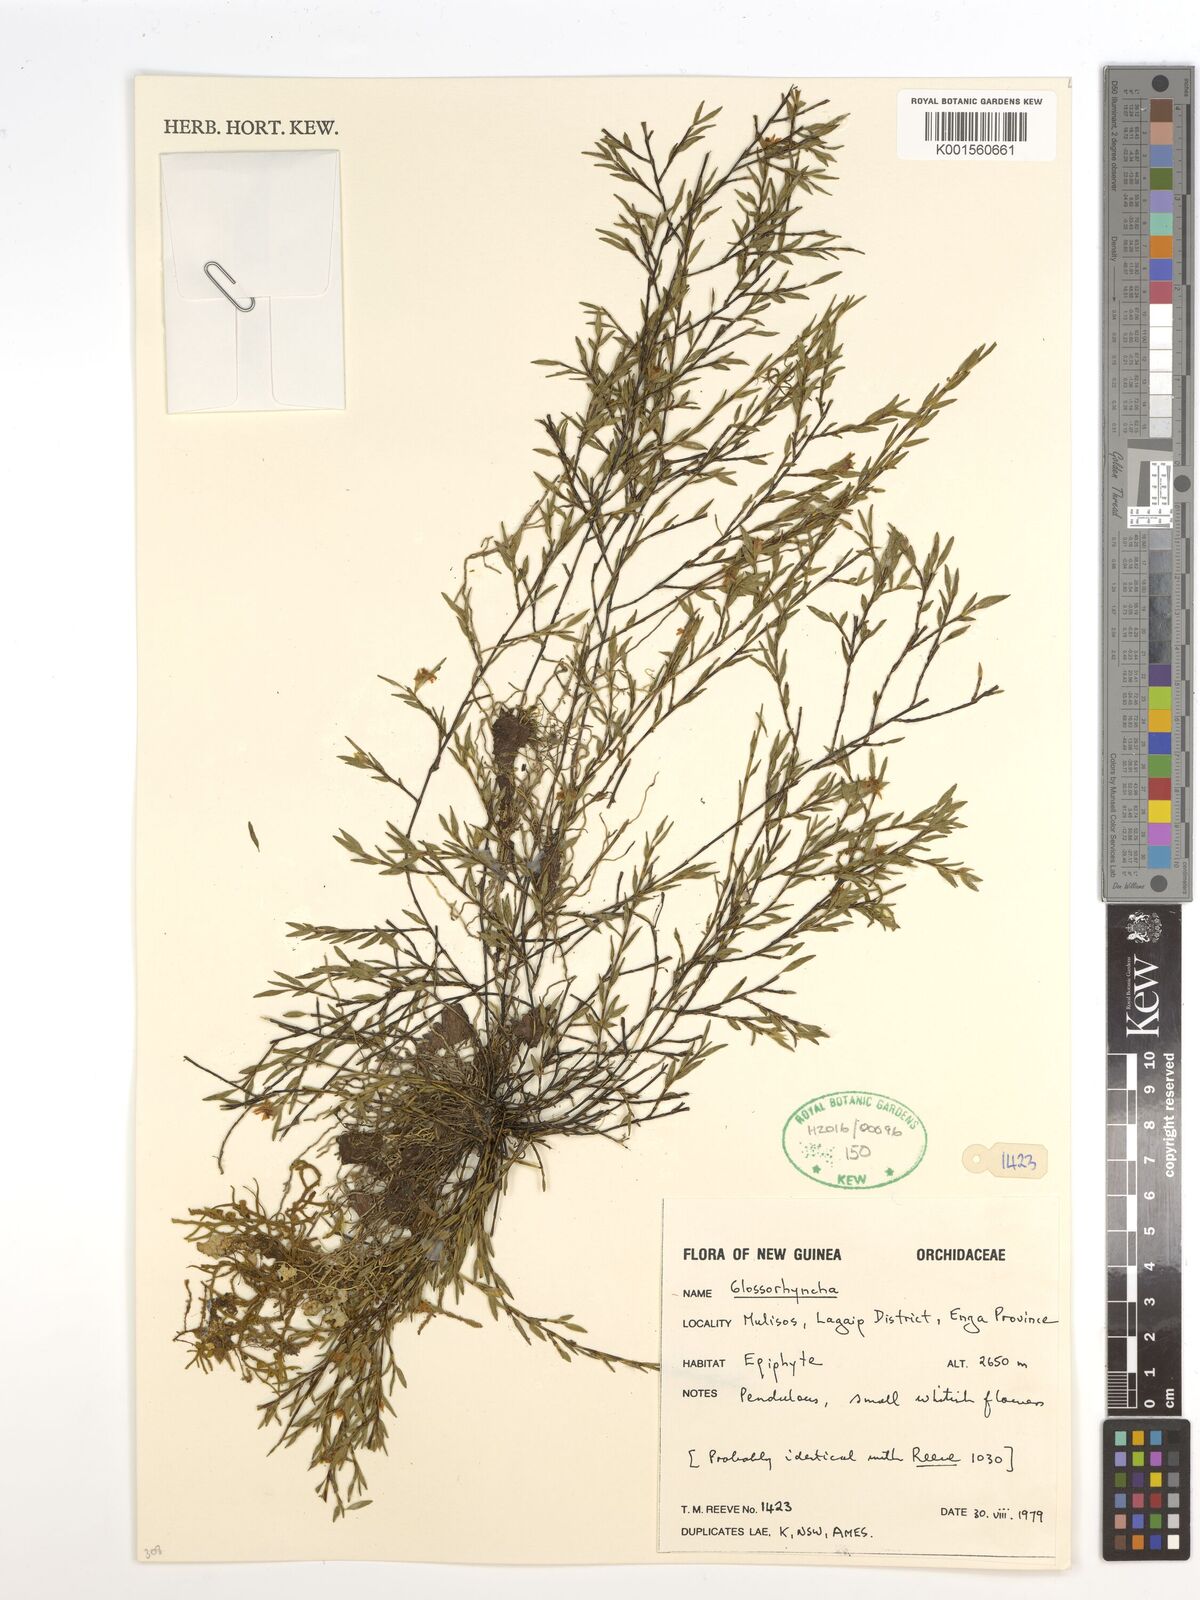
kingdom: Plantae
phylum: Tracheophyta
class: Liliopsida
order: Asparagales
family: Orchidaceae
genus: Glomera
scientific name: Glomera
